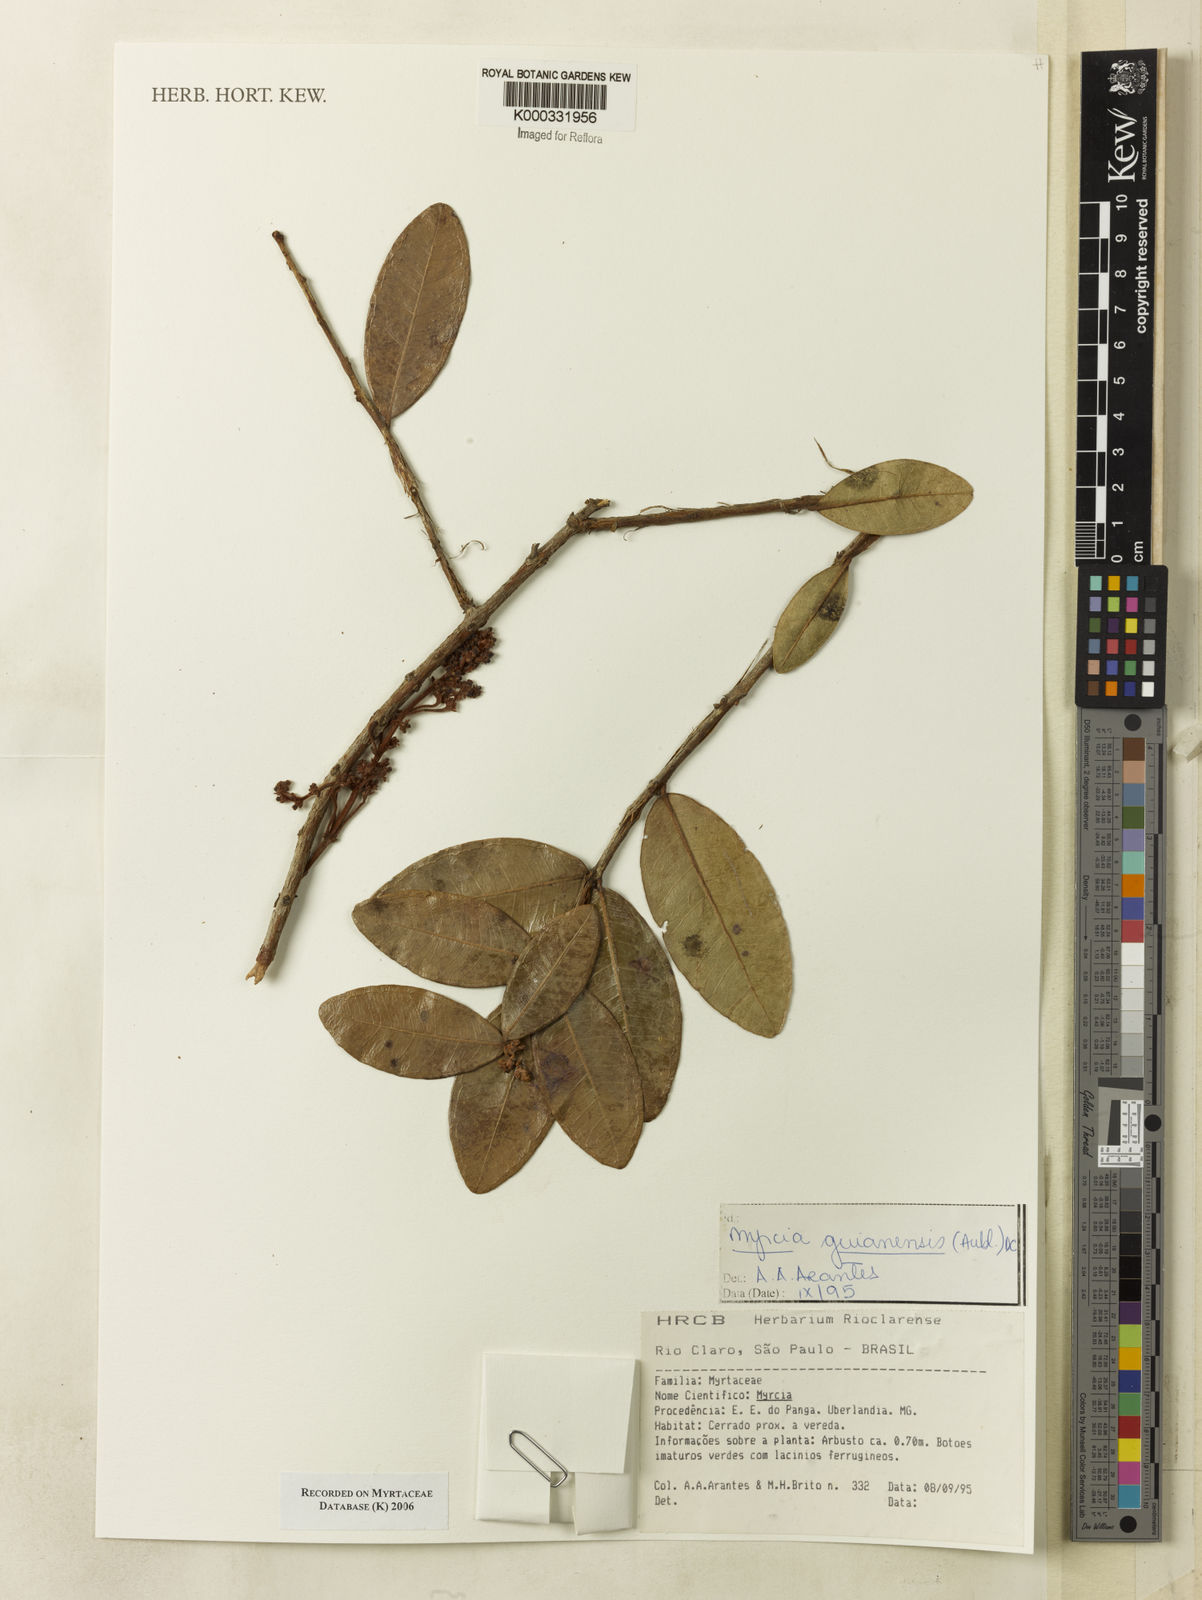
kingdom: Plantae
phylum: Tracheophyta
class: Magnoliopsida
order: Myrtales
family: Myrtaceae
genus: Myrcia
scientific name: Myrcia guianensis
